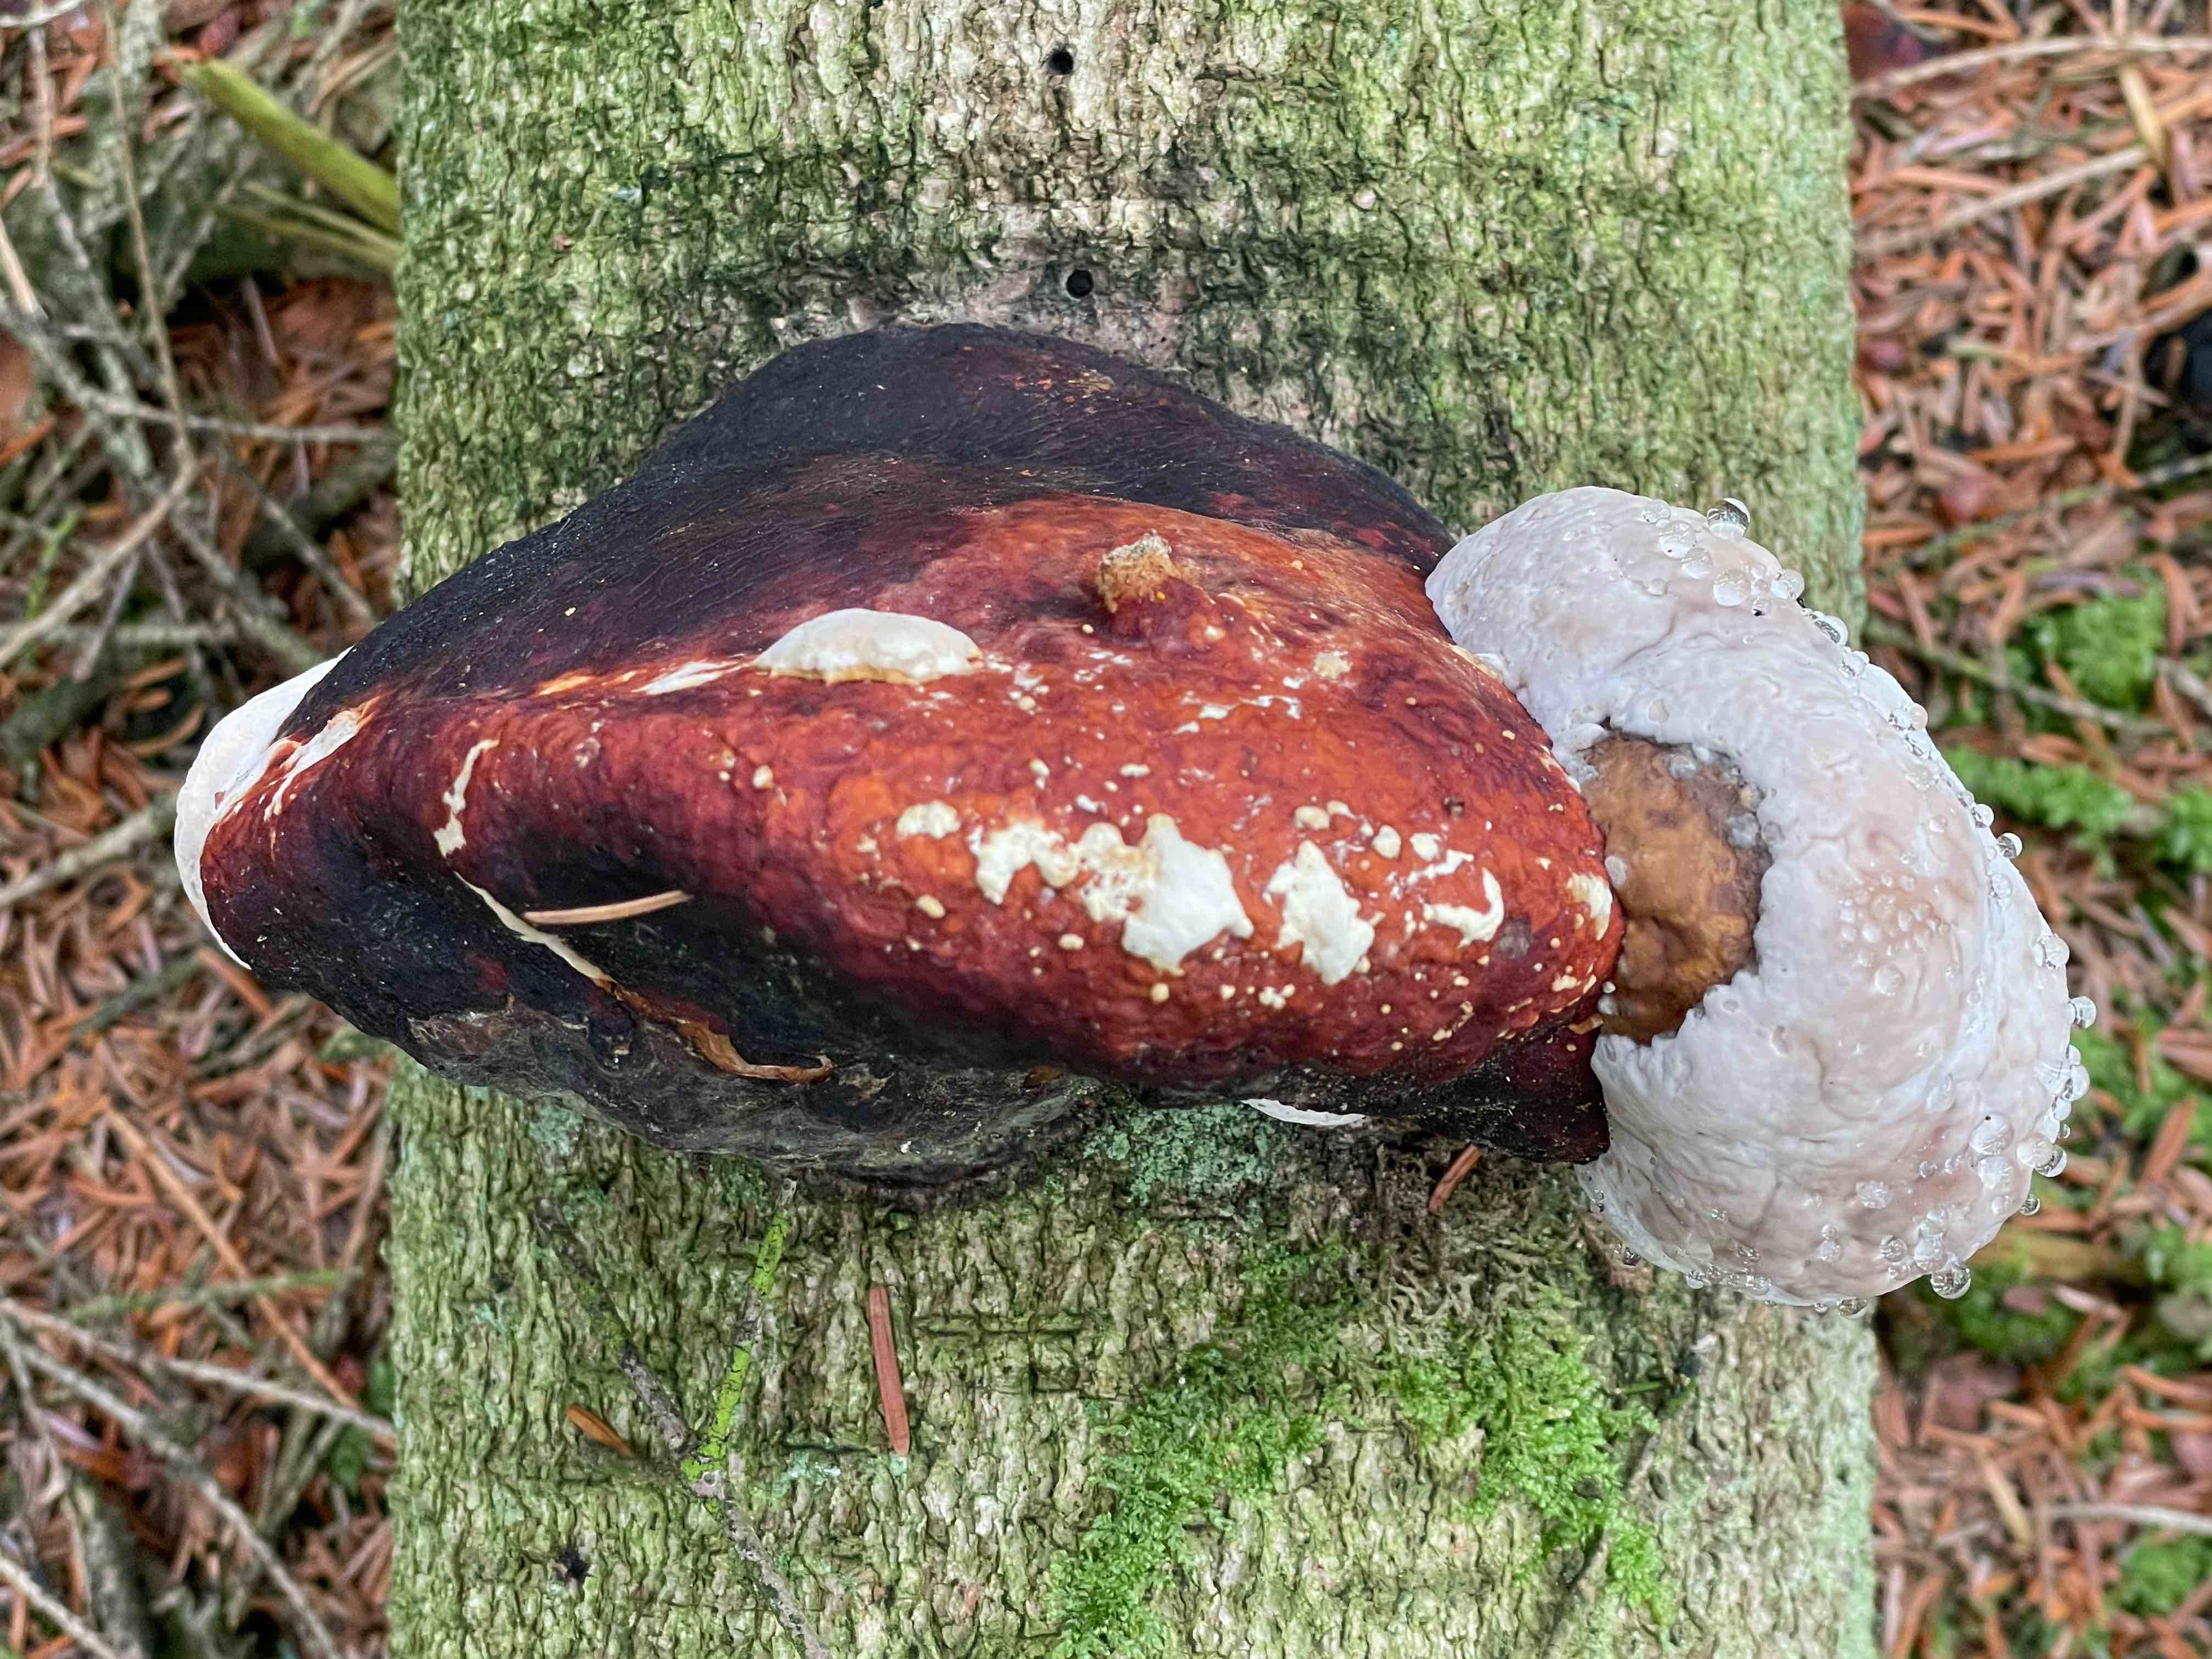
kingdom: Fungi
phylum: Basidiomycota
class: Agaricomycetes
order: Polyporales
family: Fomitopsidaceae
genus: Fomitopsis
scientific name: Fomitopsis pinicola
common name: randbæltet hovporesvamp
